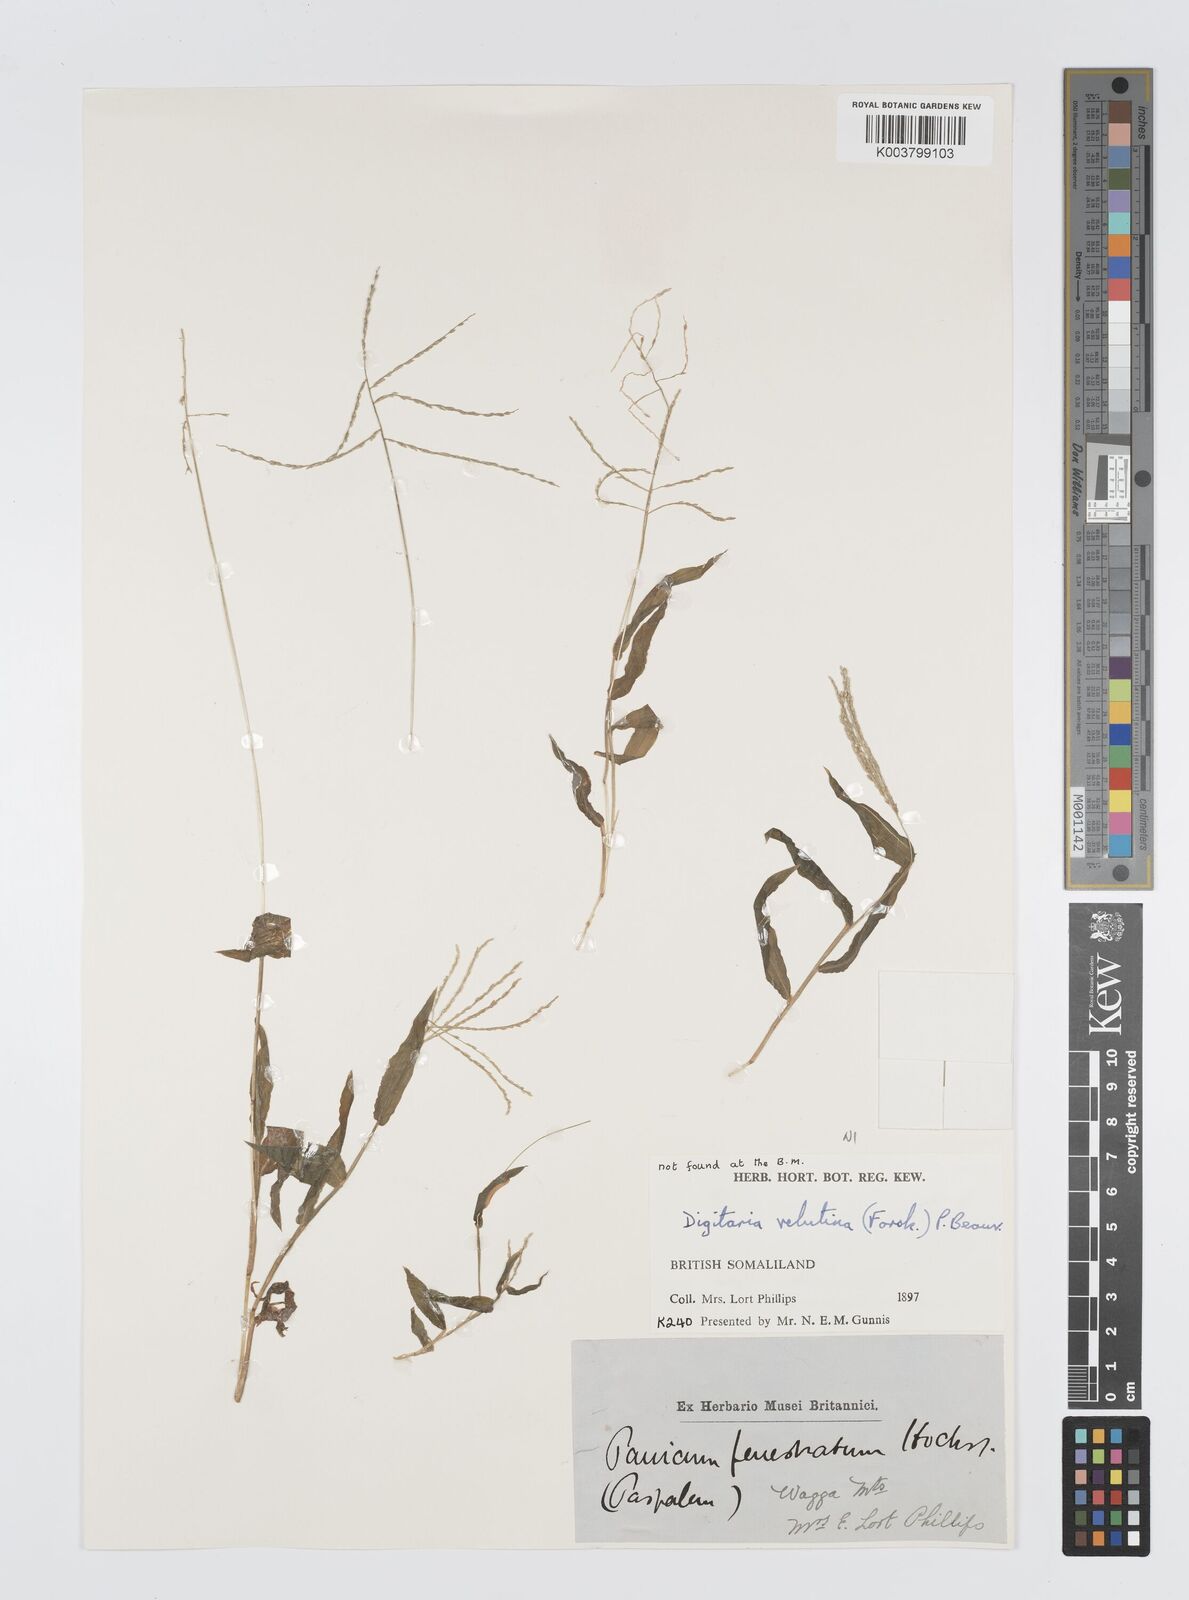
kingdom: Plantae
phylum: Tracheophyta
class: Liliopsida
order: Poales
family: Poaceae
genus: Digitaria
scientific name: Digitaria velutina
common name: Long-plume finger grass
